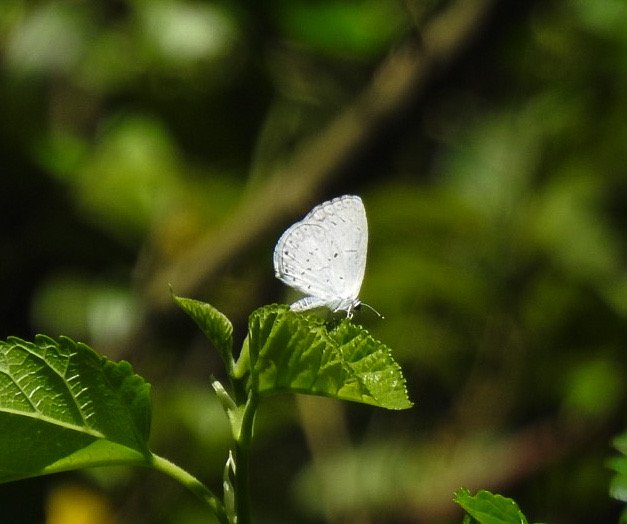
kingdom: Animalia
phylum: Arthropoda
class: Insecta
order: Lepidoptera
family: Lycaenidae
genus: Cyaniris
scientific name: Cyaniris neglecta
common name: Summer Azure
